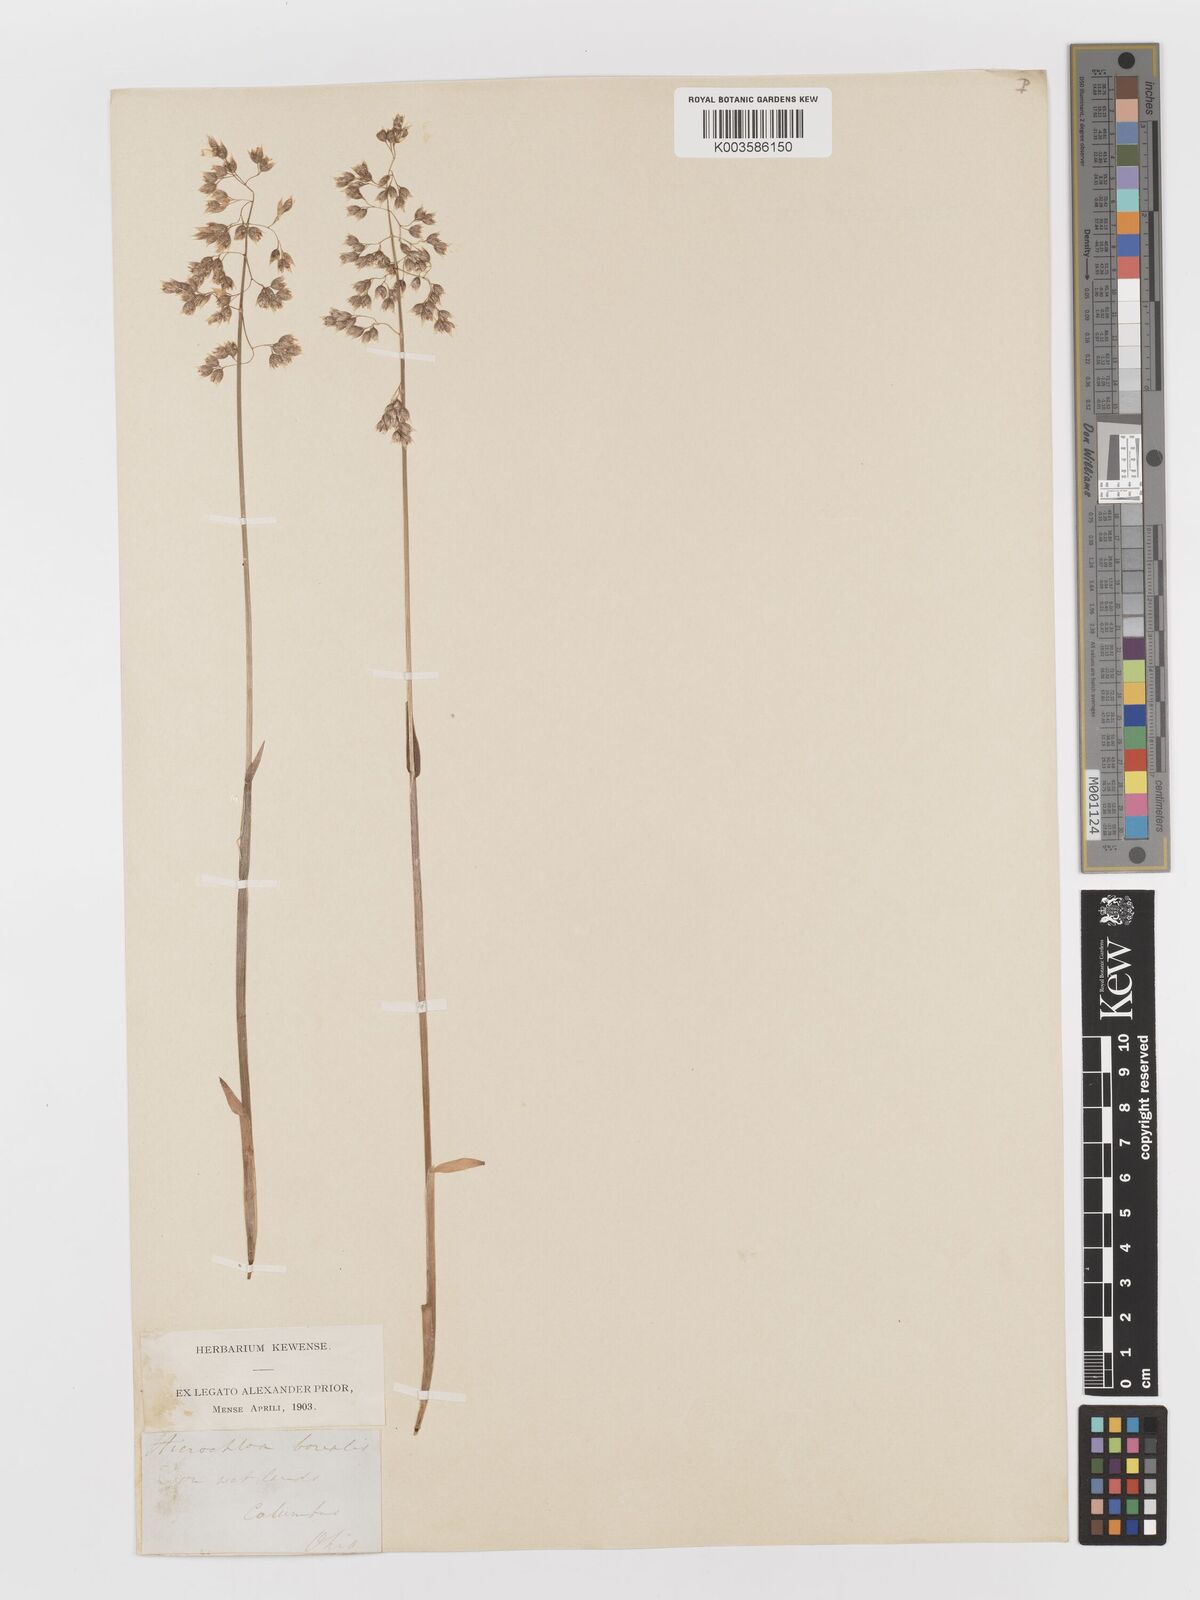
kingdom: Plantae
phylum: Tracheophyta
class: Liliopsida
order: Poales
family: Poaceae
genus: Anthoxanthum
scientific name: Anthoxanthum nitens
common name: Holy grass
